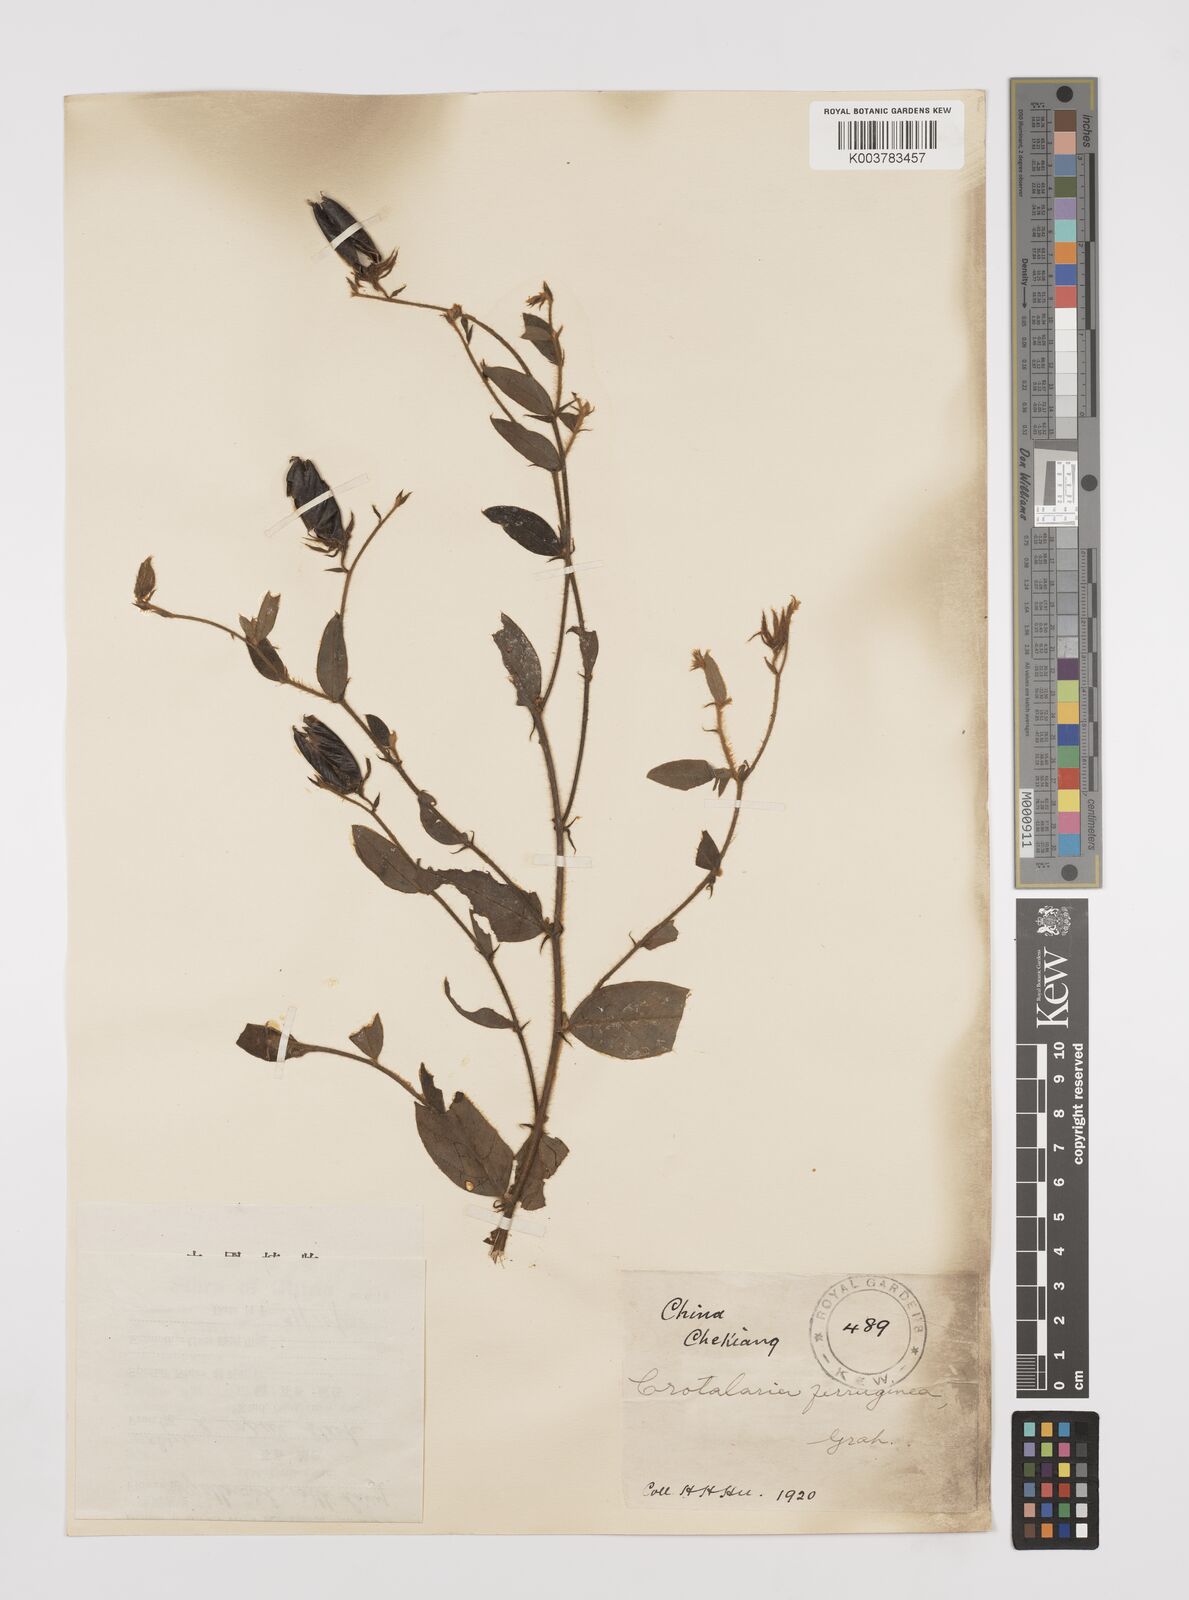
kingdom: Plantae
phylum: Tracheophyta
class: Magnoliopsida
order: Fabales
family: Fabaceae
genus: Crotalaria
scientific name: Crotalaria lejoloba
